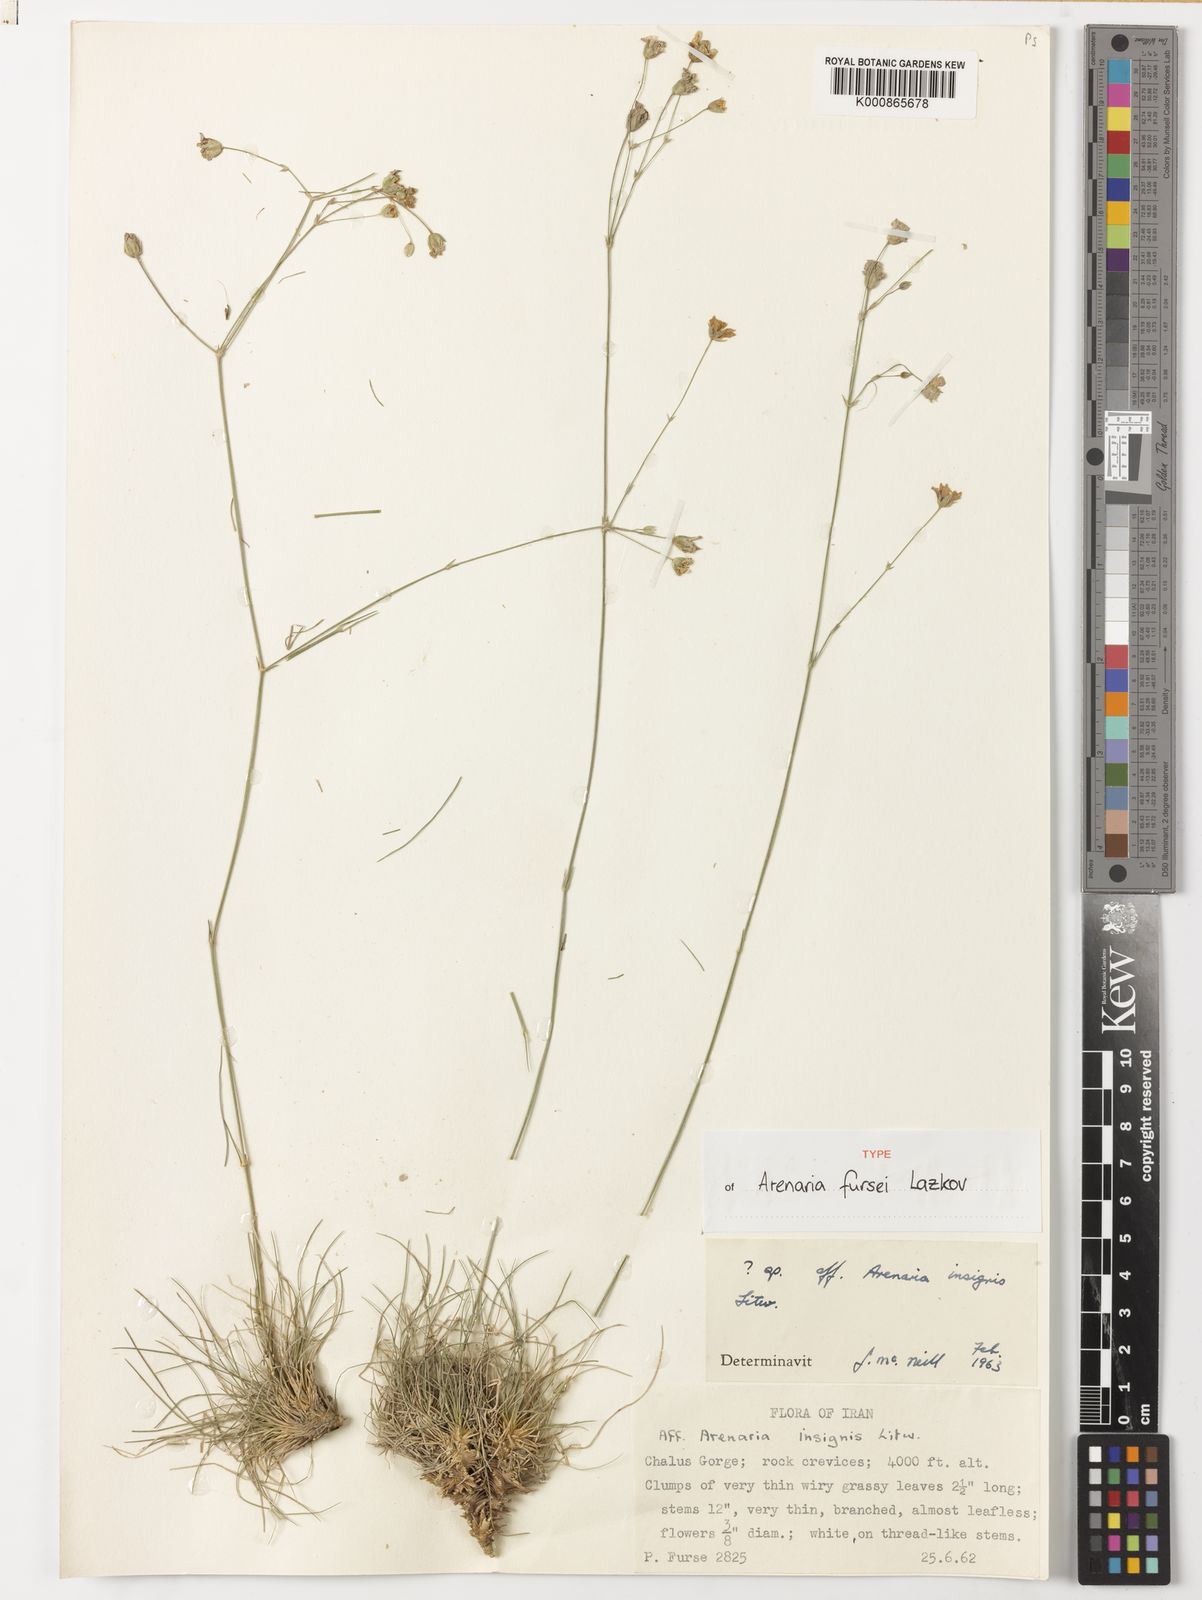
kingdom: Plantae
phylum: Tracheophyta
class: Magnoliopsida
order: Caryophyllales
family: Caryophyllaceae
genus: Eremogone
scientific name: Eremogone fursei
